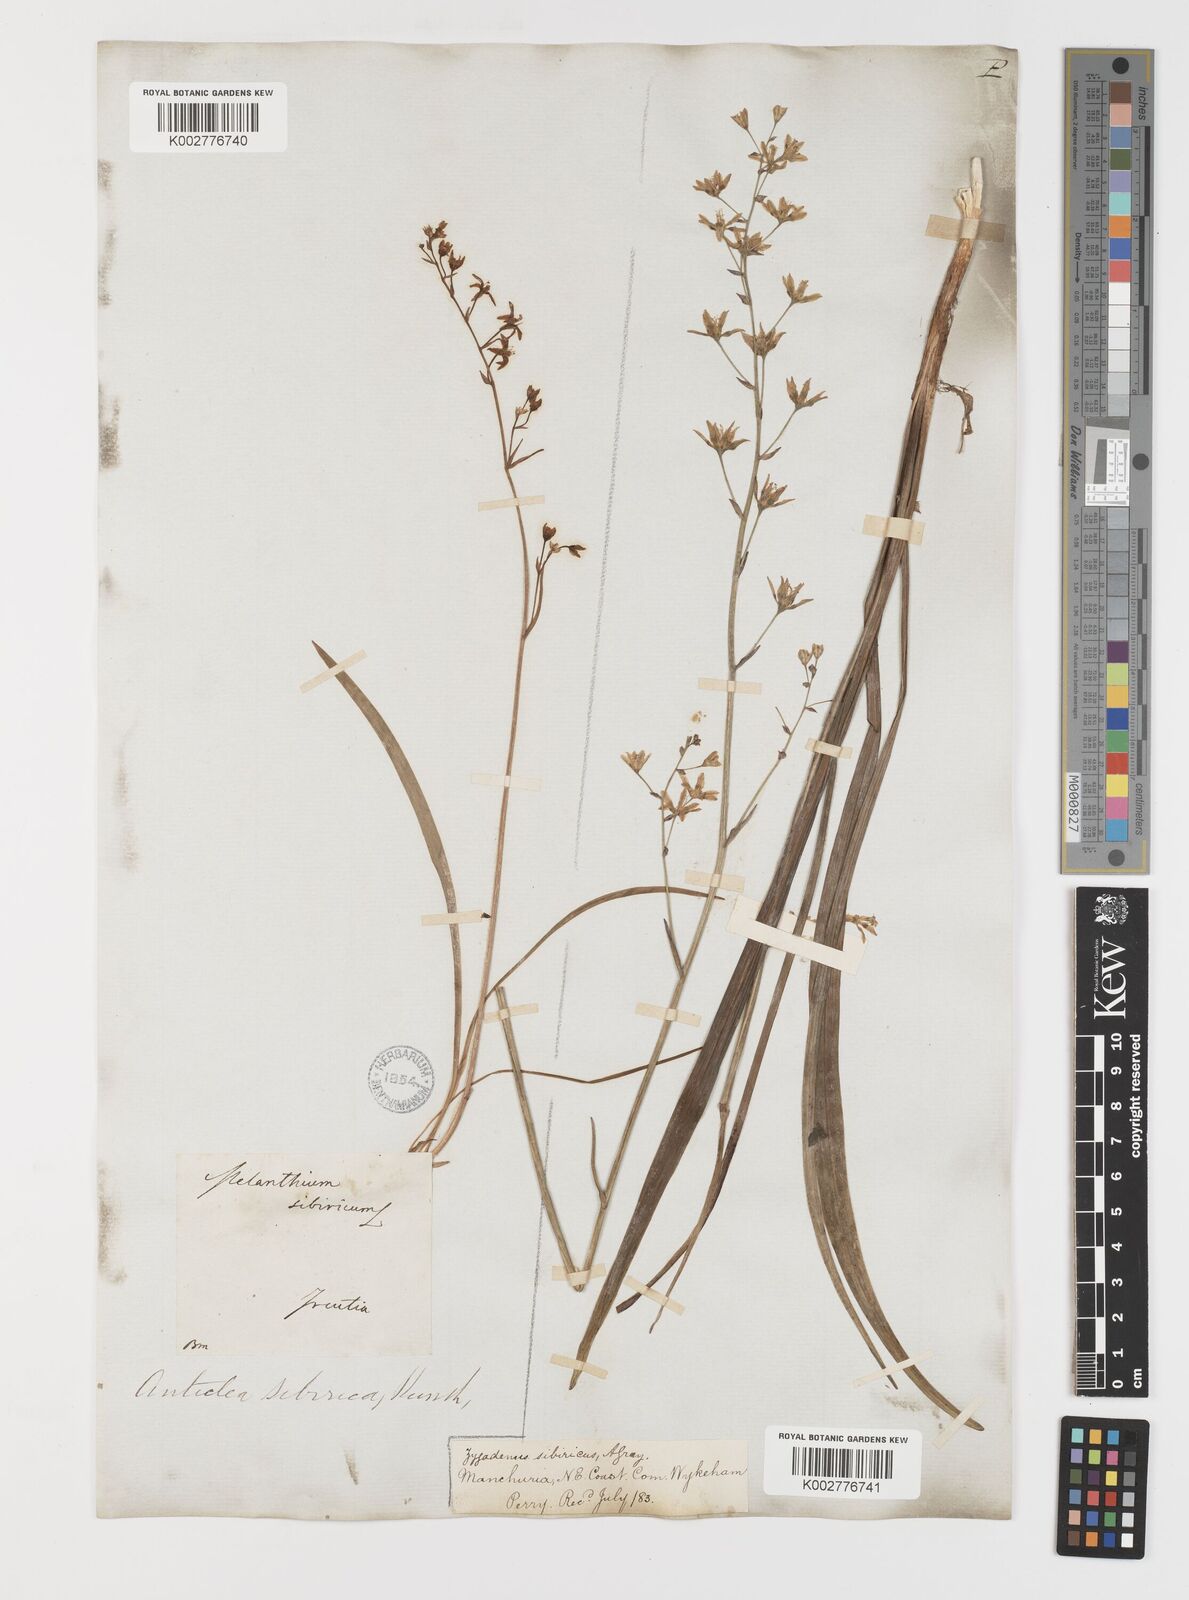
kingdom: Plantae
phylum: Tracheophyta
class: Liliopsida
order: Liliales
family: Melanthiaceae
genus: Anticlea
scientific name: Anticlea sibirica
